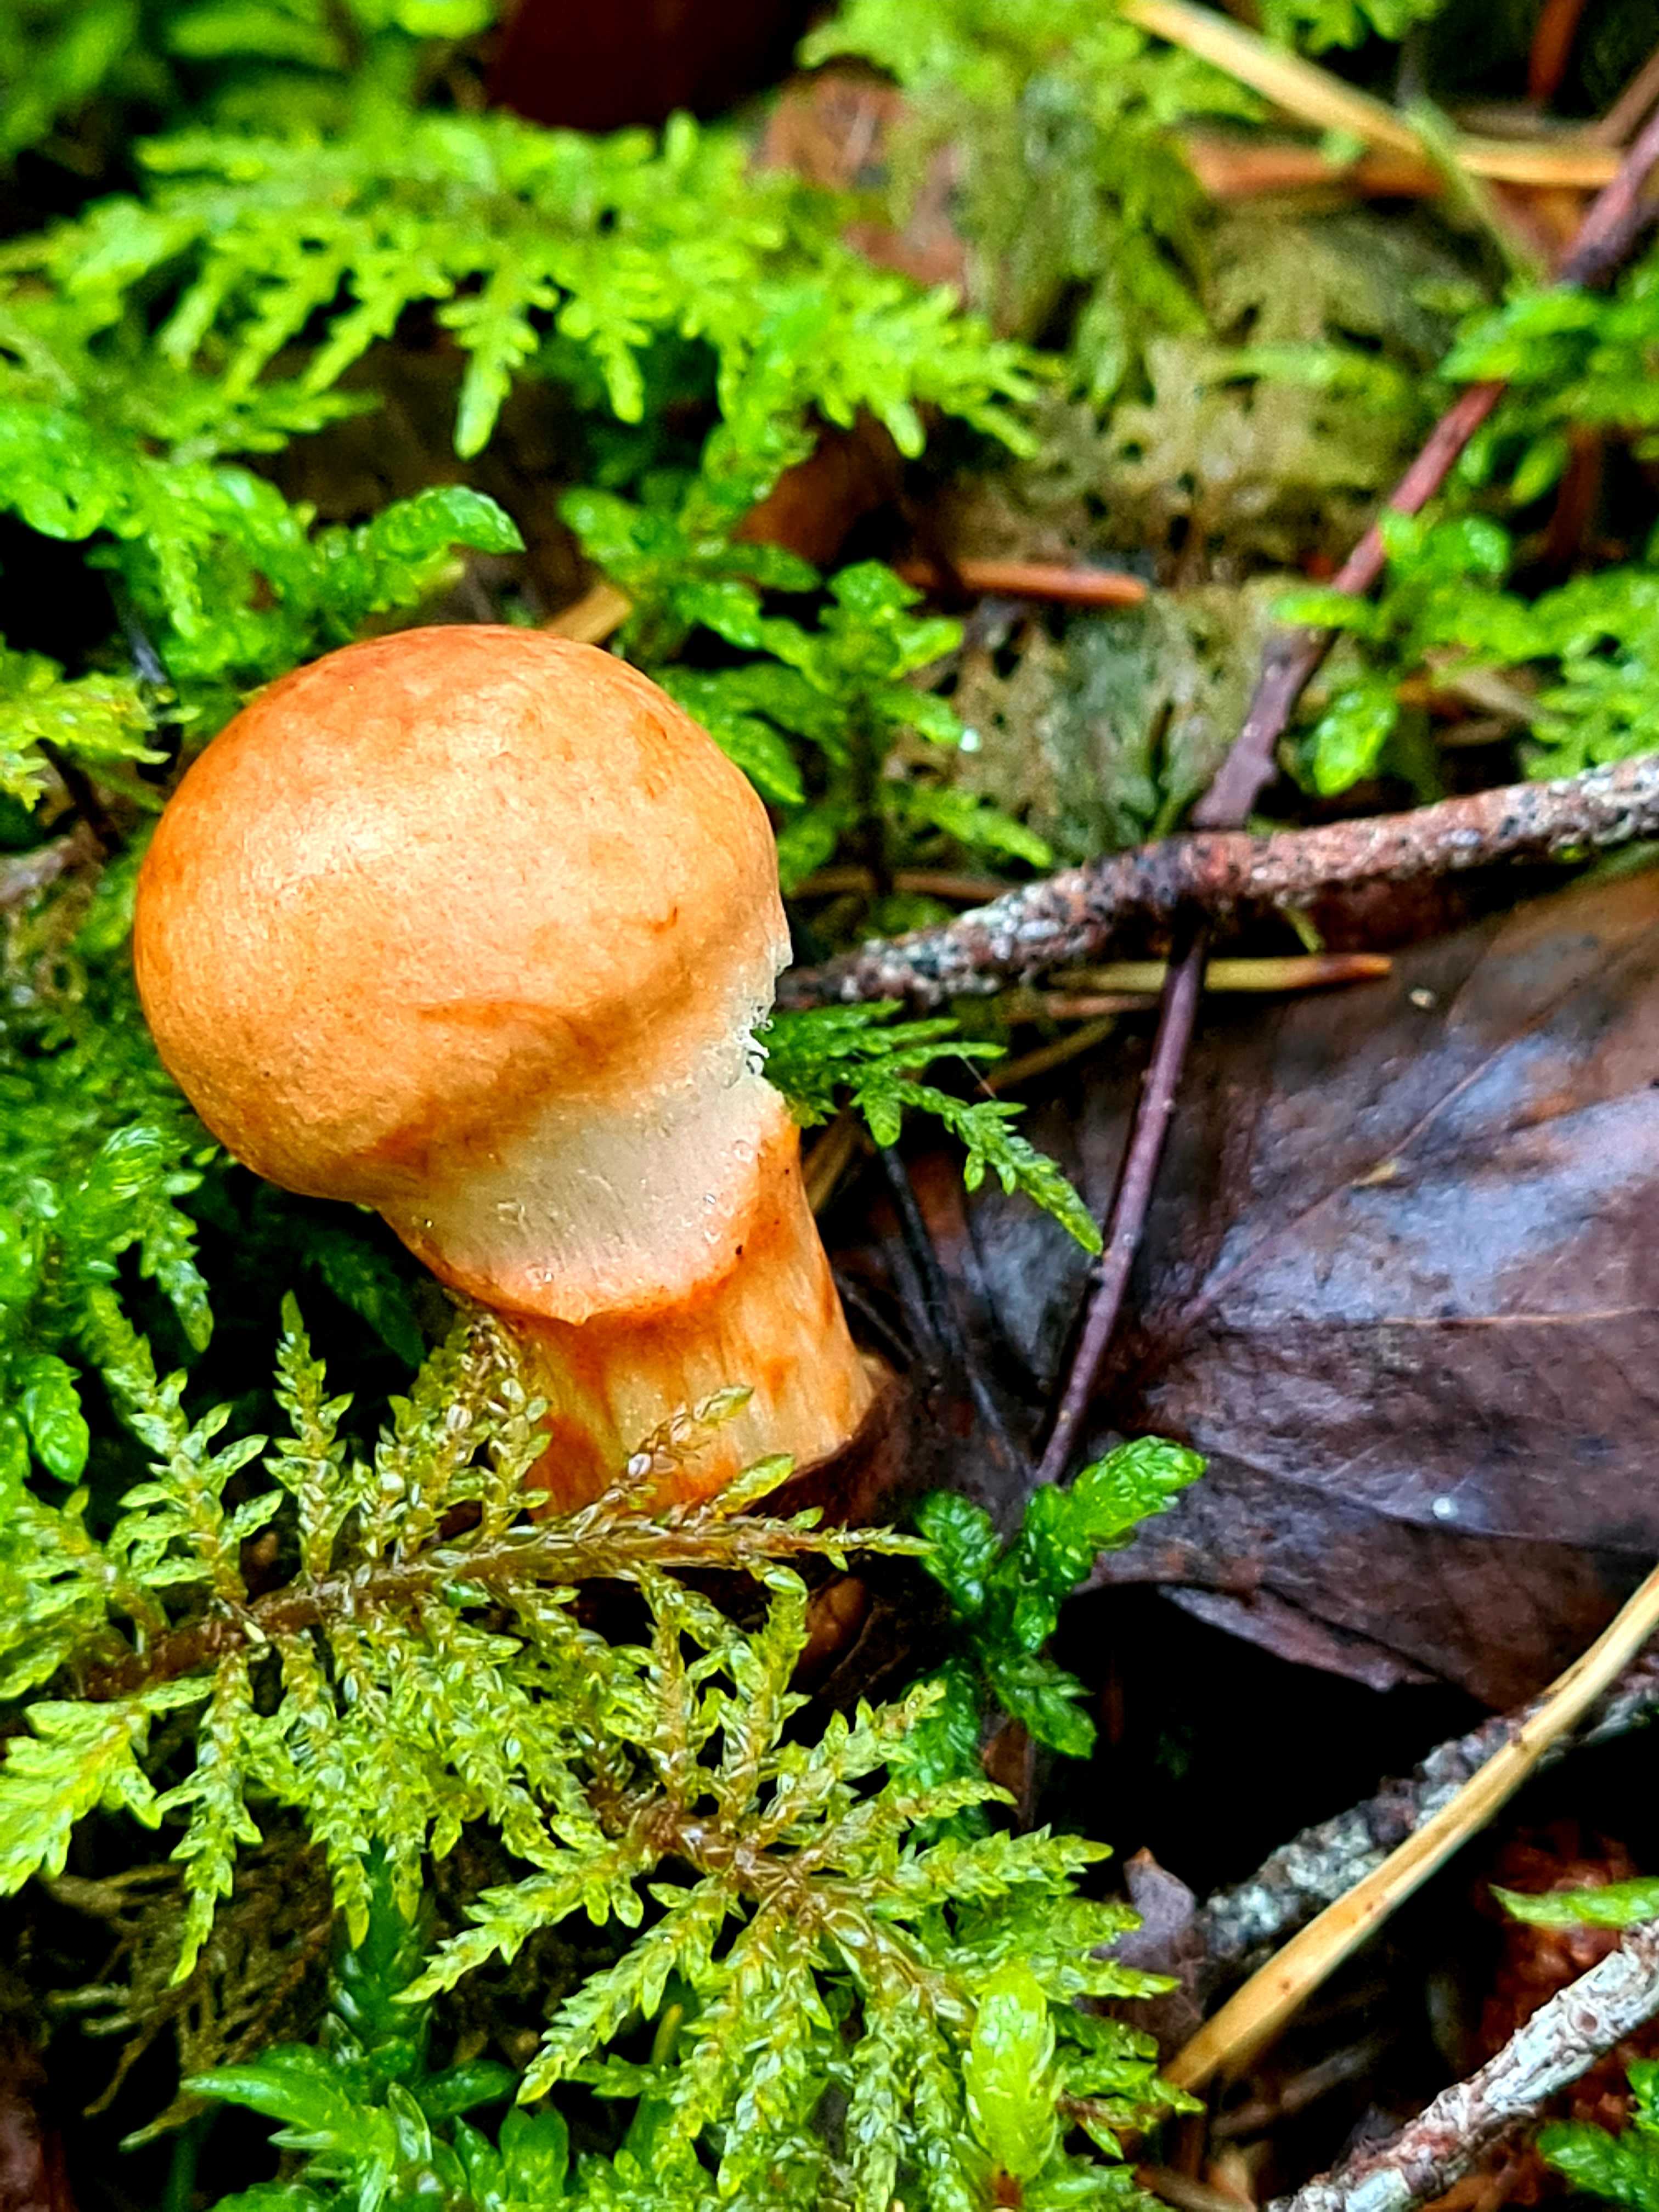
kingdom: Fungi
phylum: Basidiomycota
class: Agaricomycetes
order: Agaricales
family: Cortinariaceae
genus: Cortinarius
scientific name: Cortinarius armillatus
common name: cinnoberbæltet slørhat
